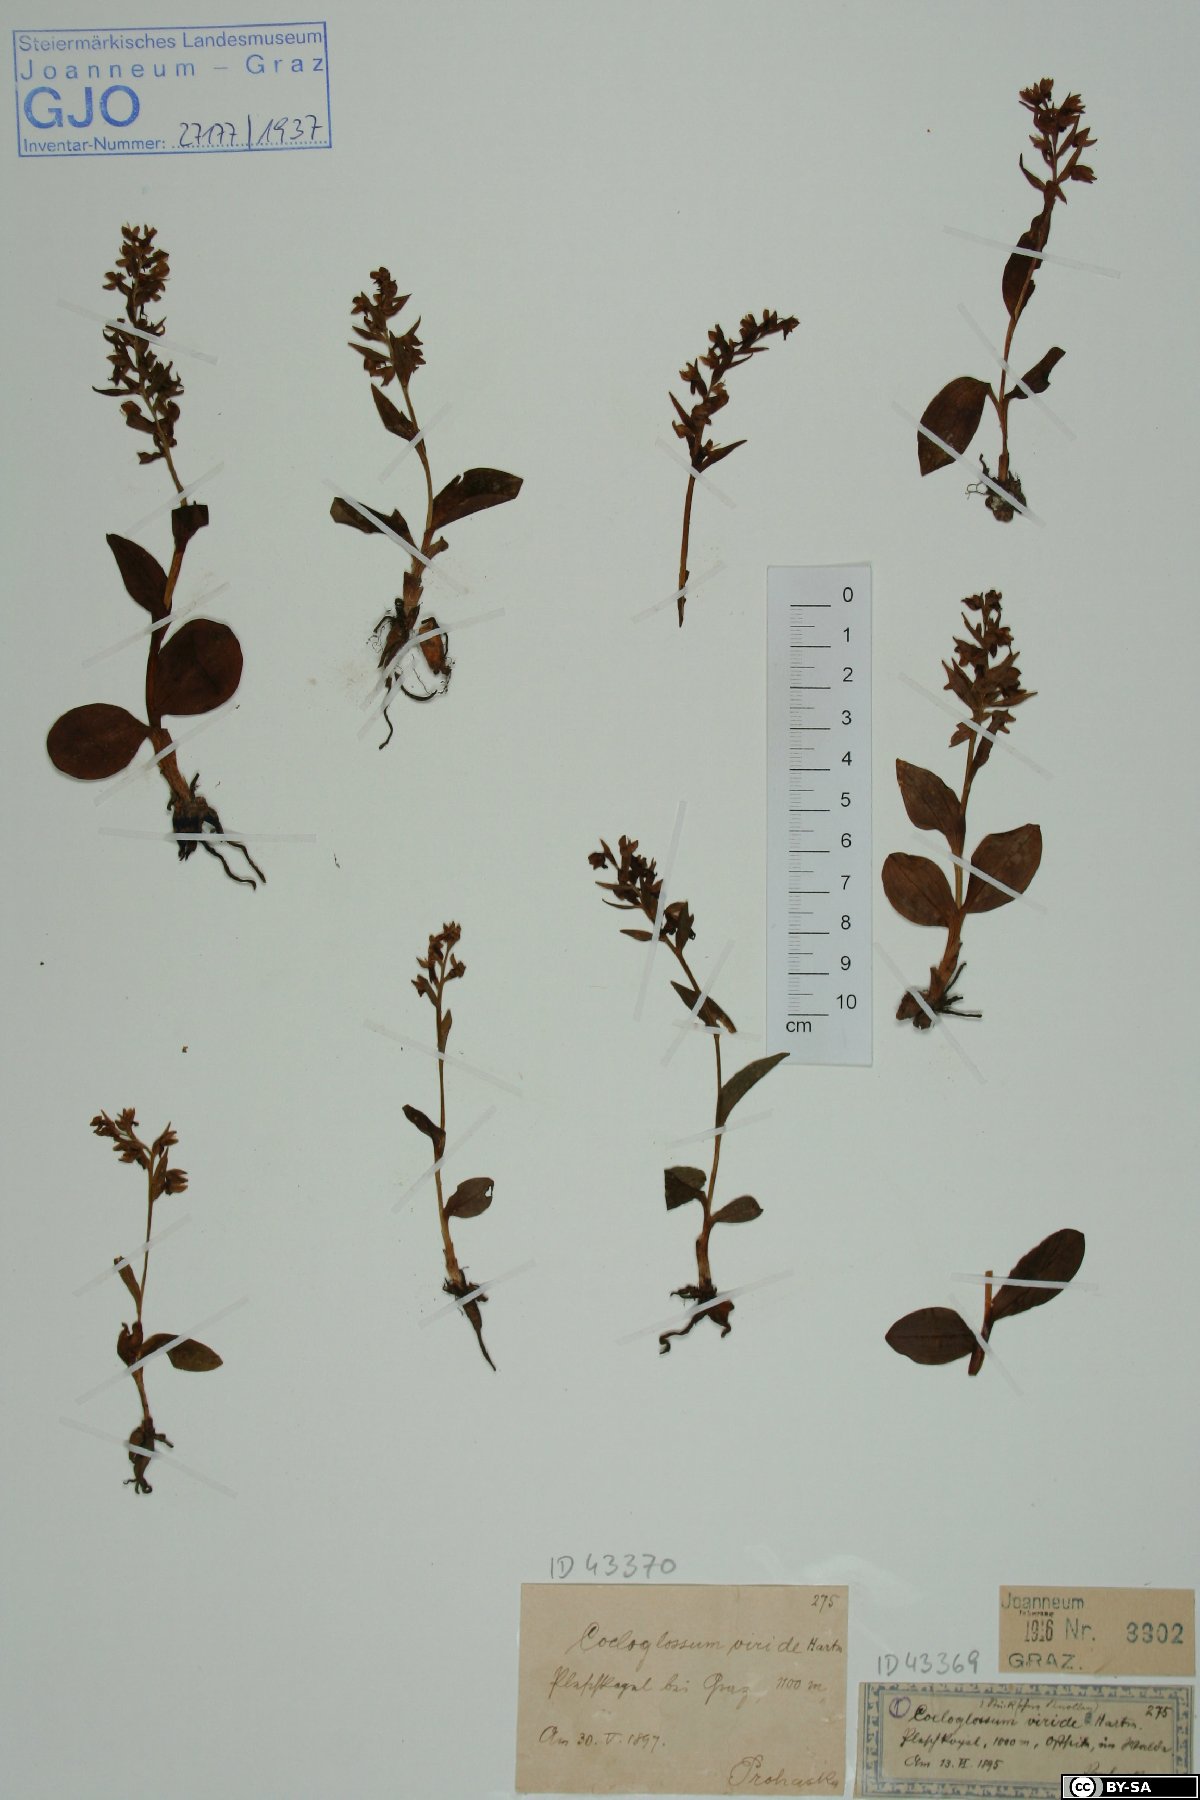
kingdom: Plantae
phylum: Tracheophyta
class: Liliopsida
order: Asparagales
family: Orchidaceae
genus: Dactylorhiza
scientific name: Dactylorhiza viridis
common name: Longbract frog orchid
